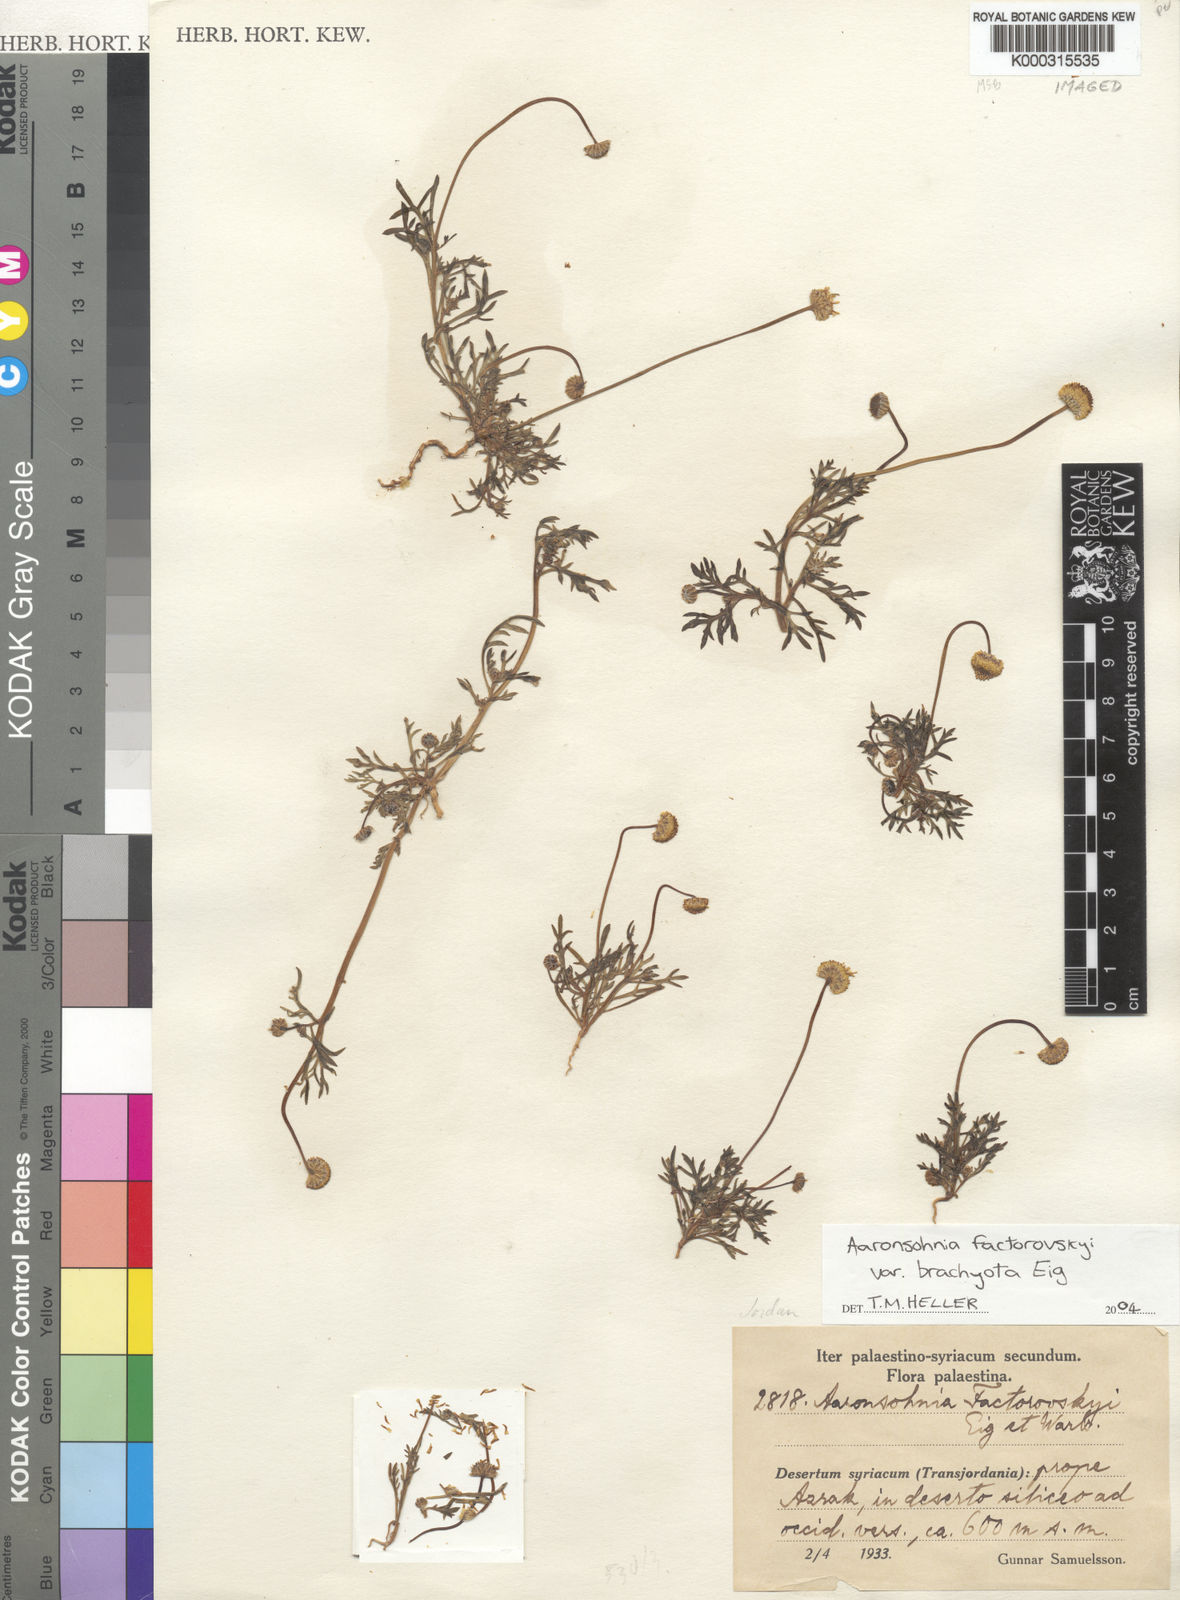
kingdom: Plantae
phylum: Tracheophyta
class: Magnoliopsida
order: Asterales
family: Asteraceae
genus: Otoglyphis
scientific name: Otoglyphis factorovskyi
